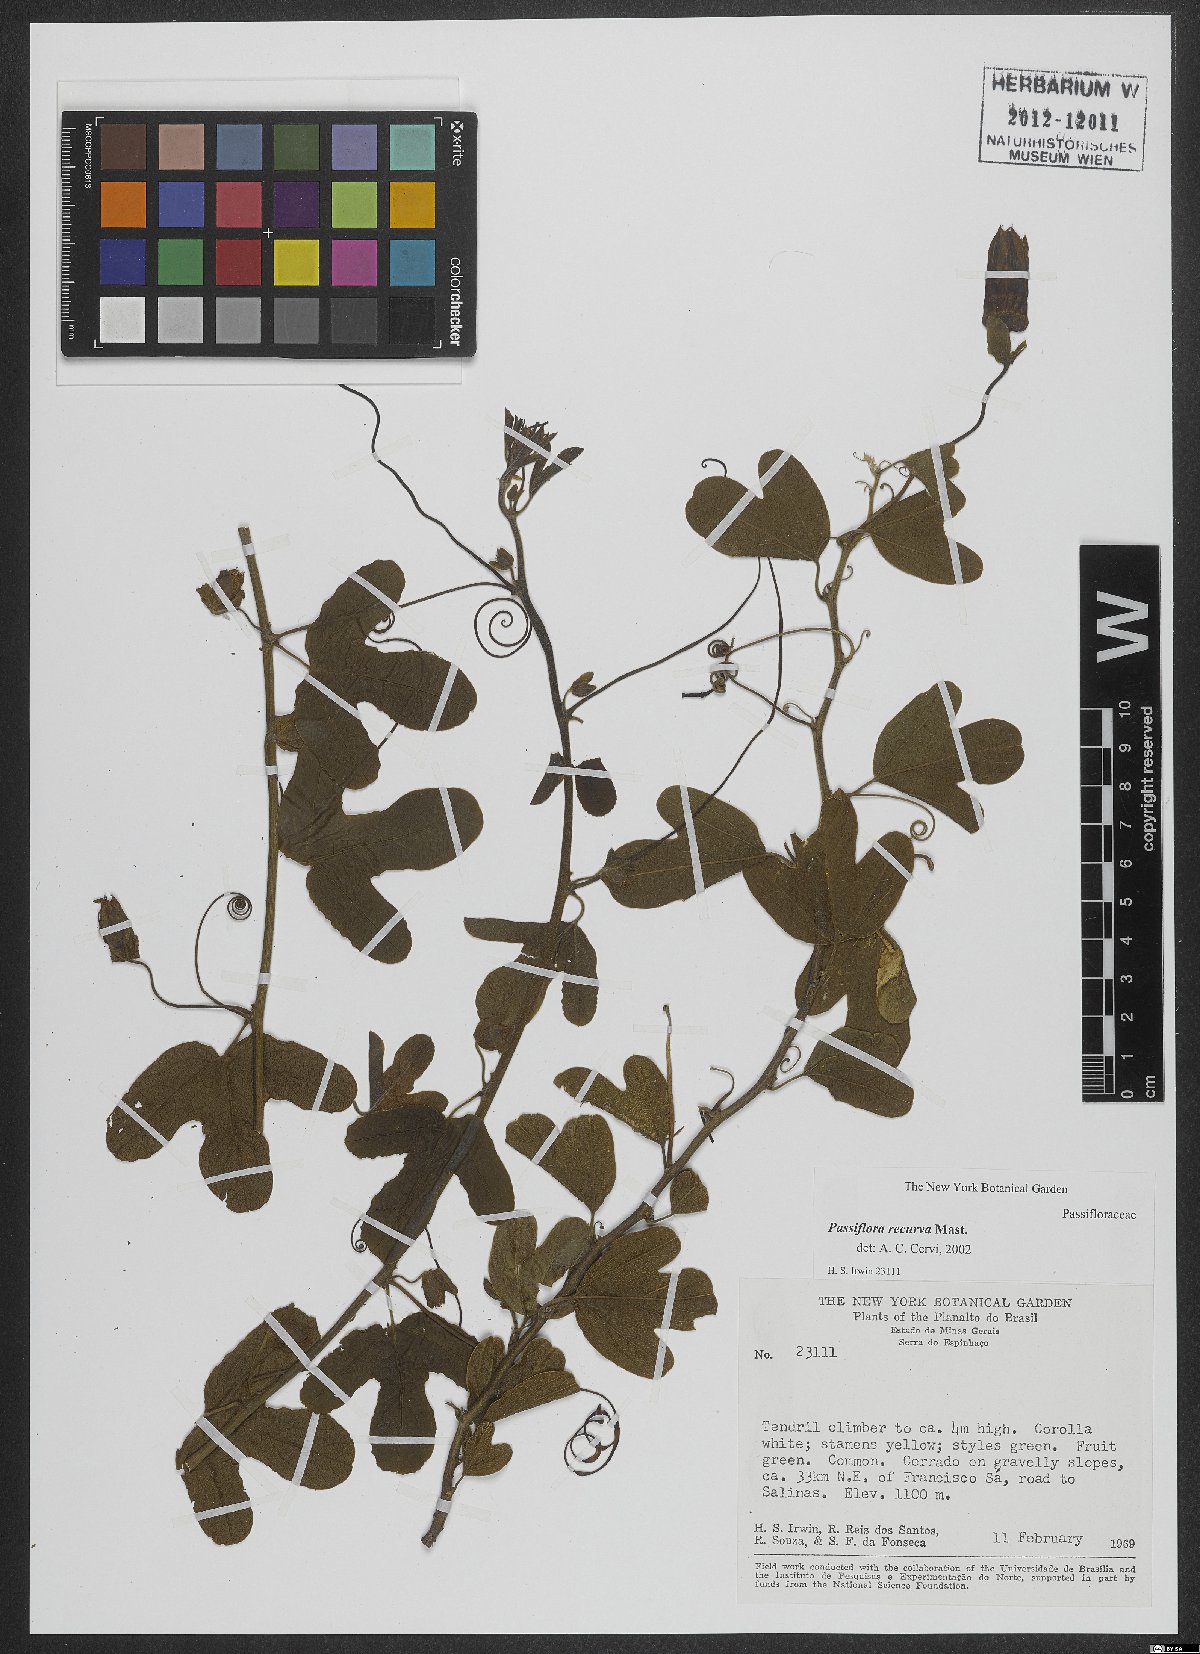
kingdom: Plantae
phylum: Tracheophyta
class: Magnoliopsida
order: Malpighiales
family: Passifloraceae
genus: Passiflora
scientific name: Passiflora recurva
